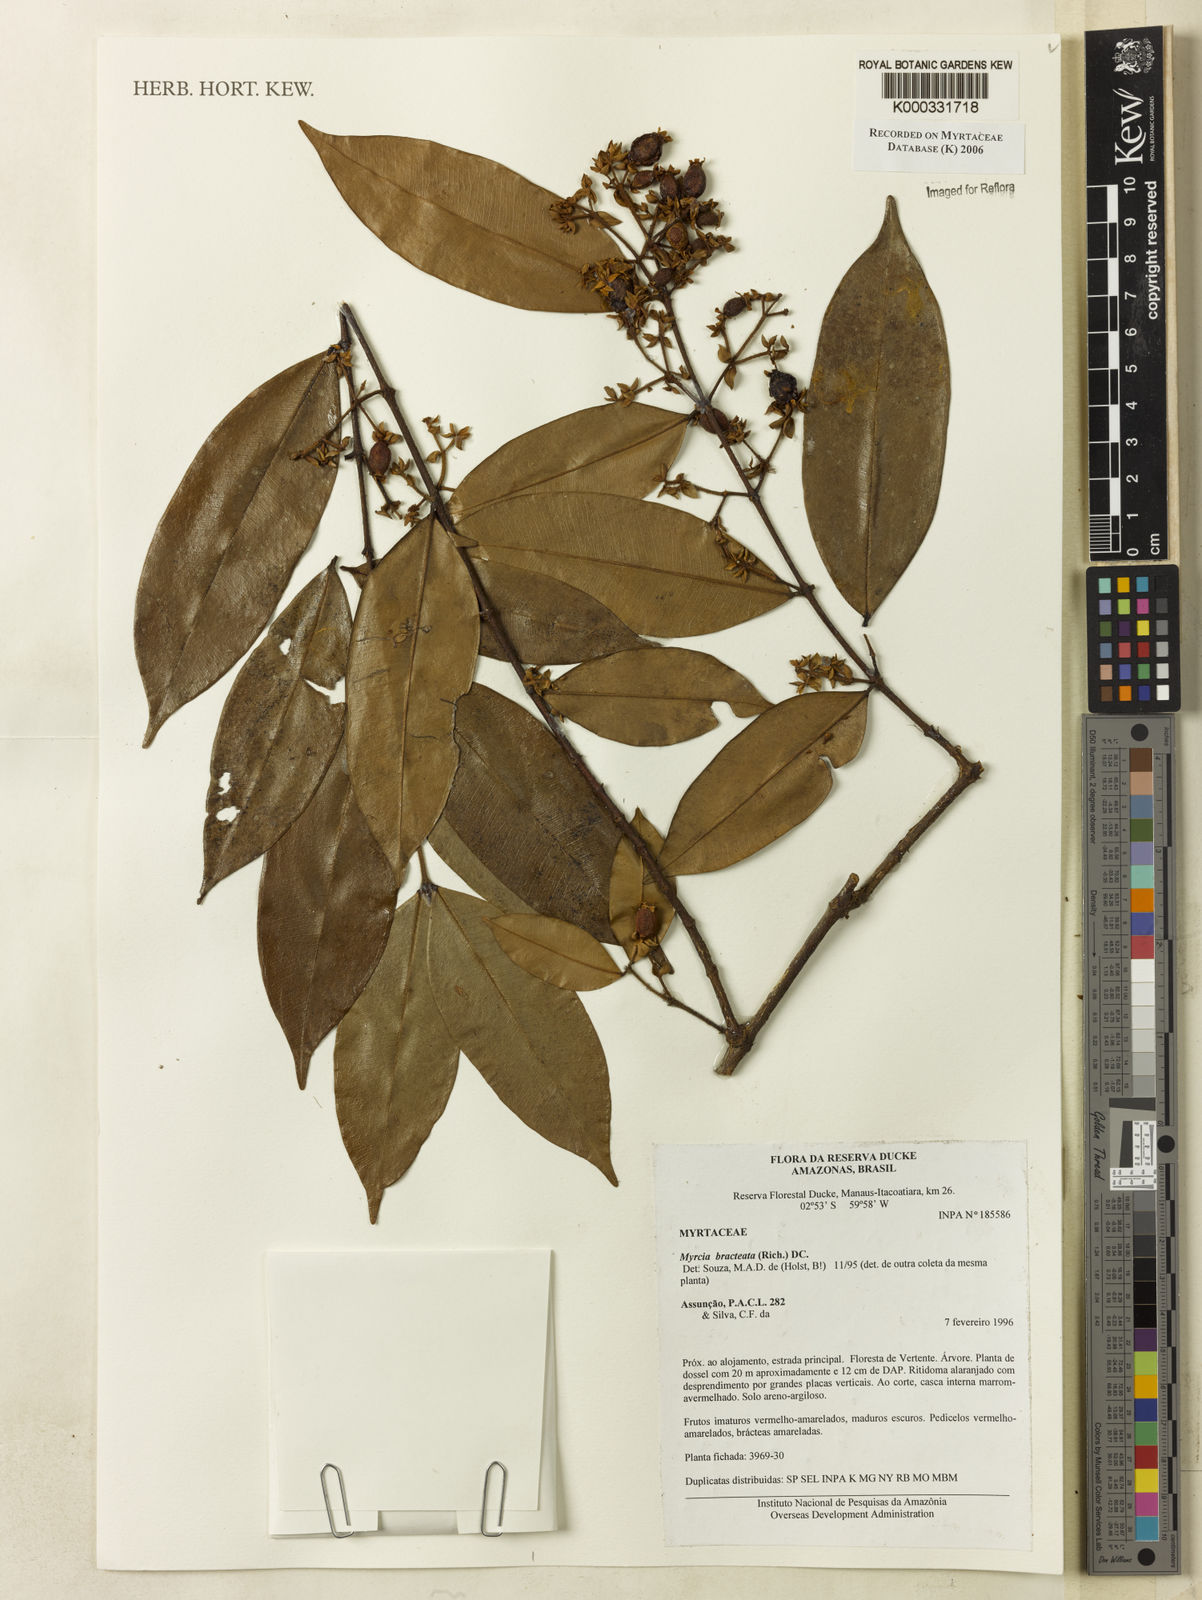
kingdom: Plantae
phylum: Tracheophyta
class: Magnoliopsida
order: Myrtales
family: Myrtaceae
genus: Myrcia
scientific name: Myrcia bracteata
